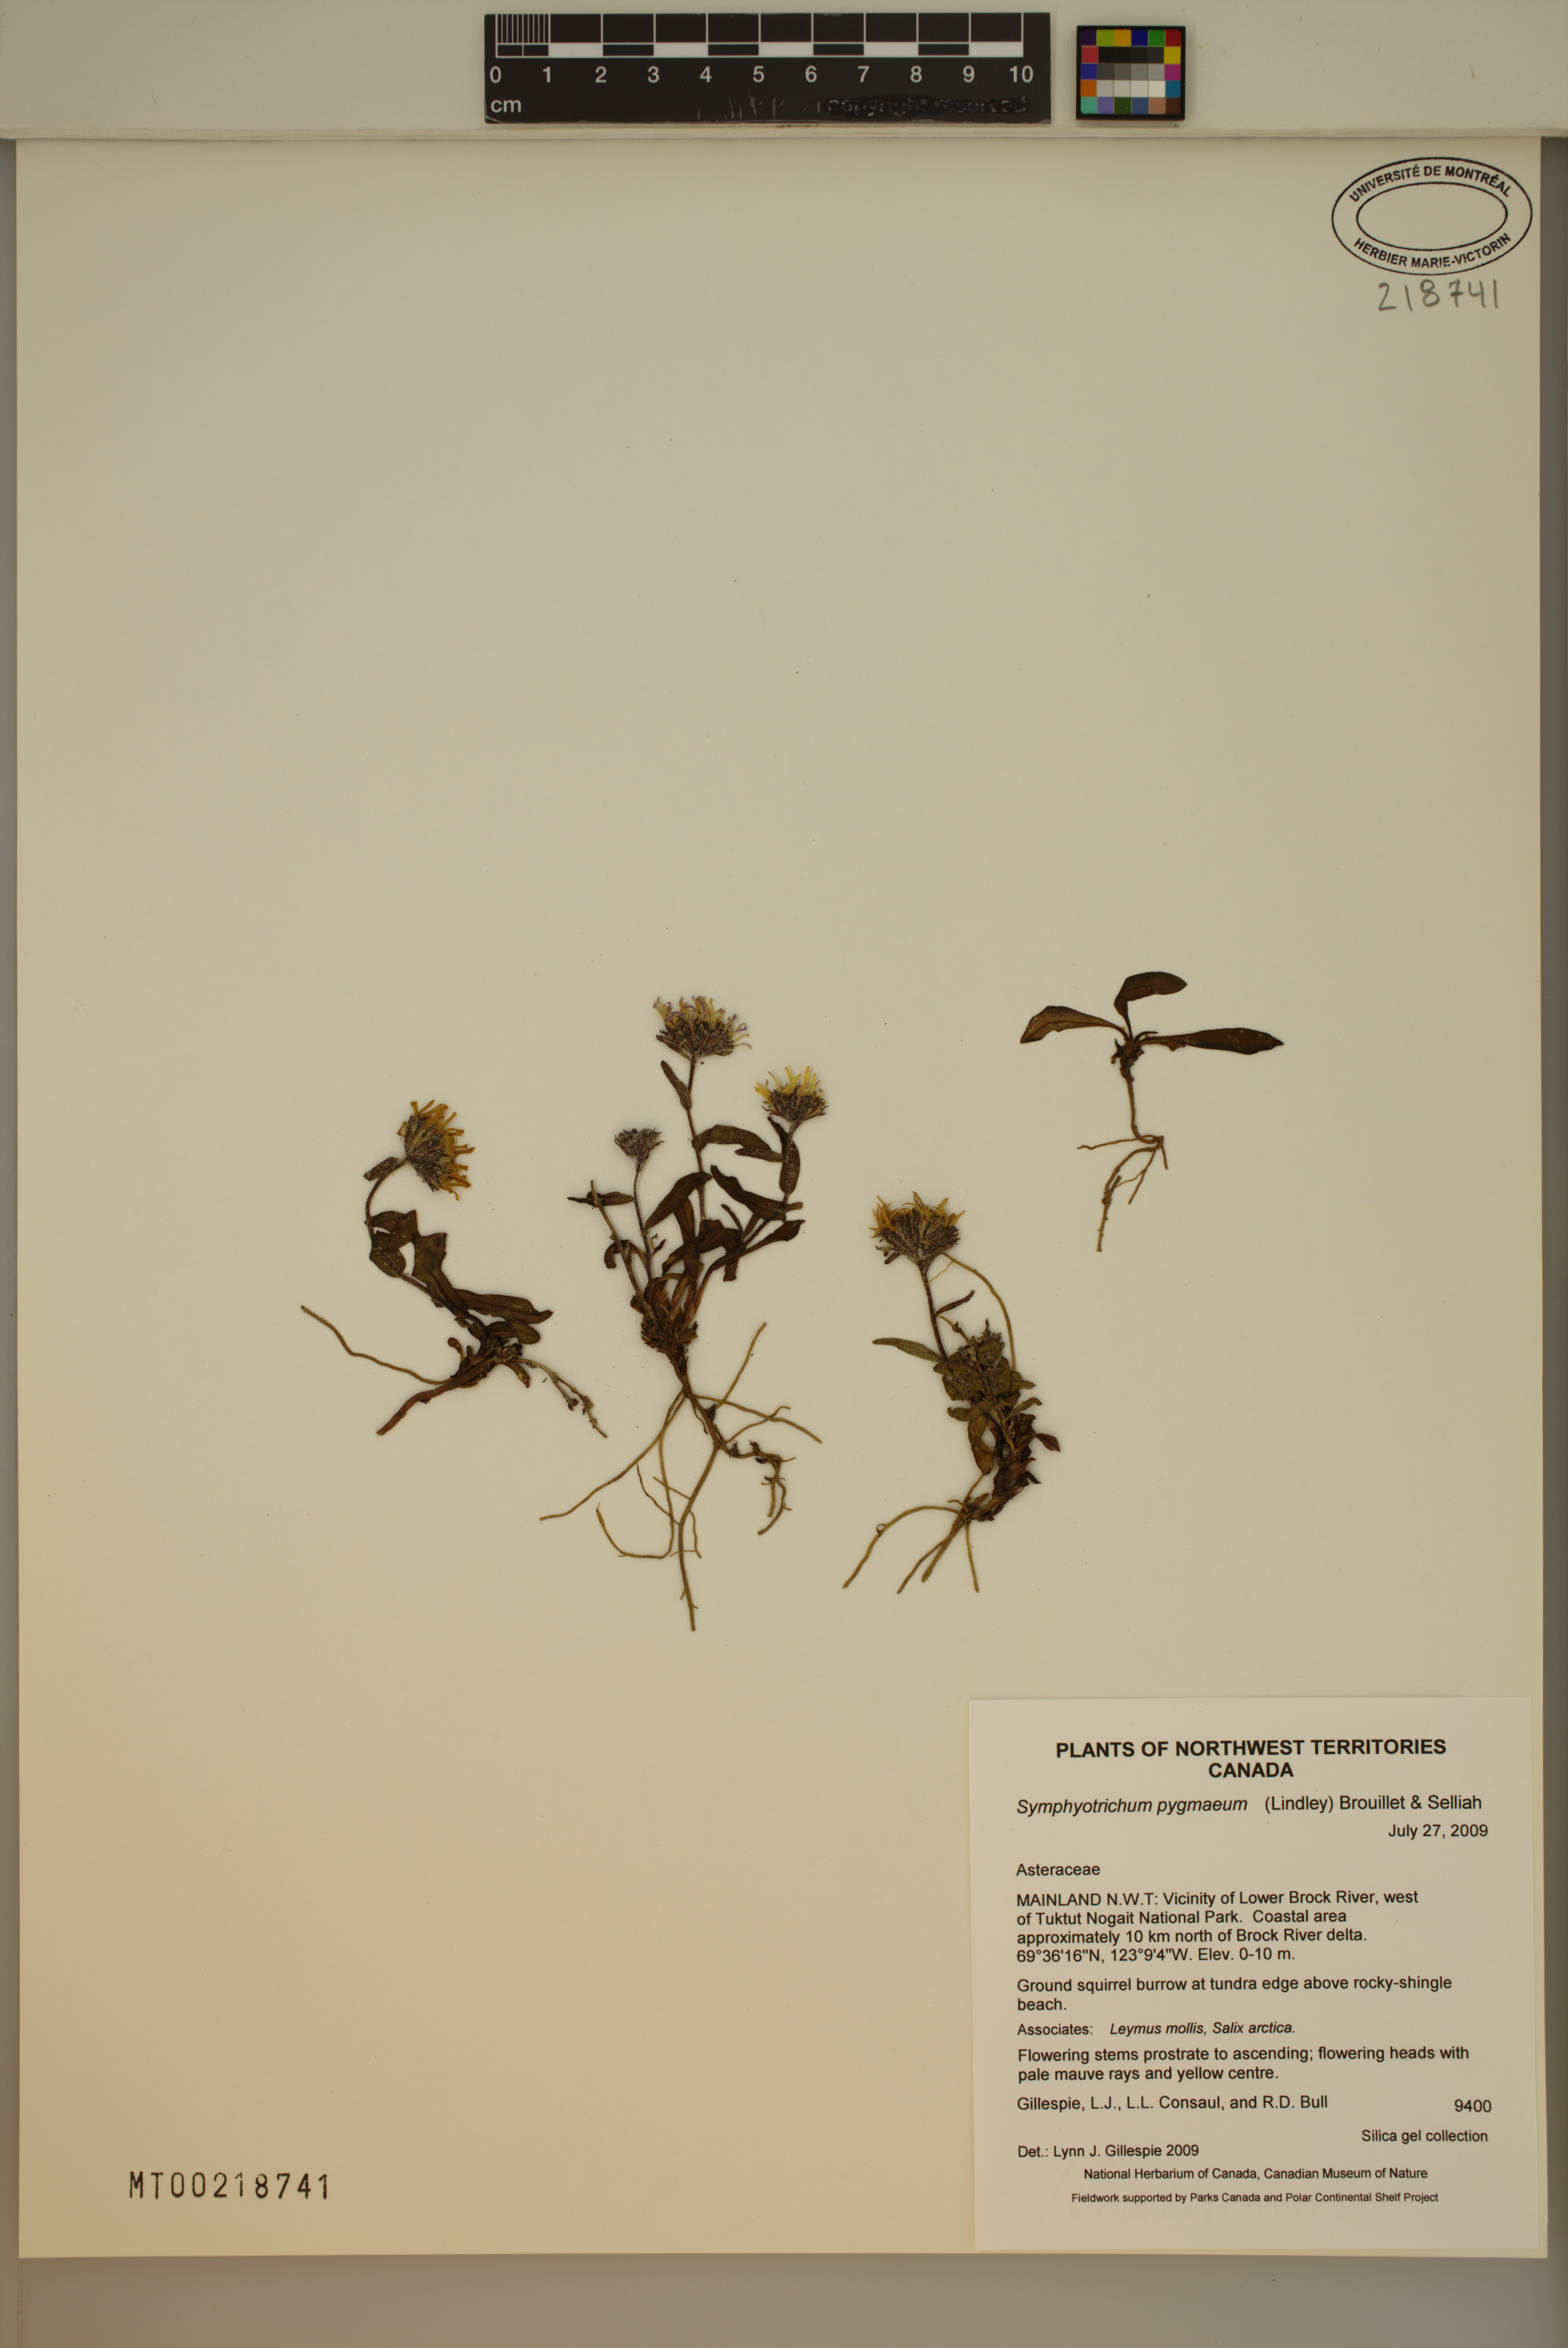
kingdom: Plantae
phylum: Tracheophyta
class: Magnoliopsida
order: Asterales
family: Asteraceae
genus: Symphyotrichum
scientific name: Symphyotrichum pygmaeum
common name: Pygmy aster
